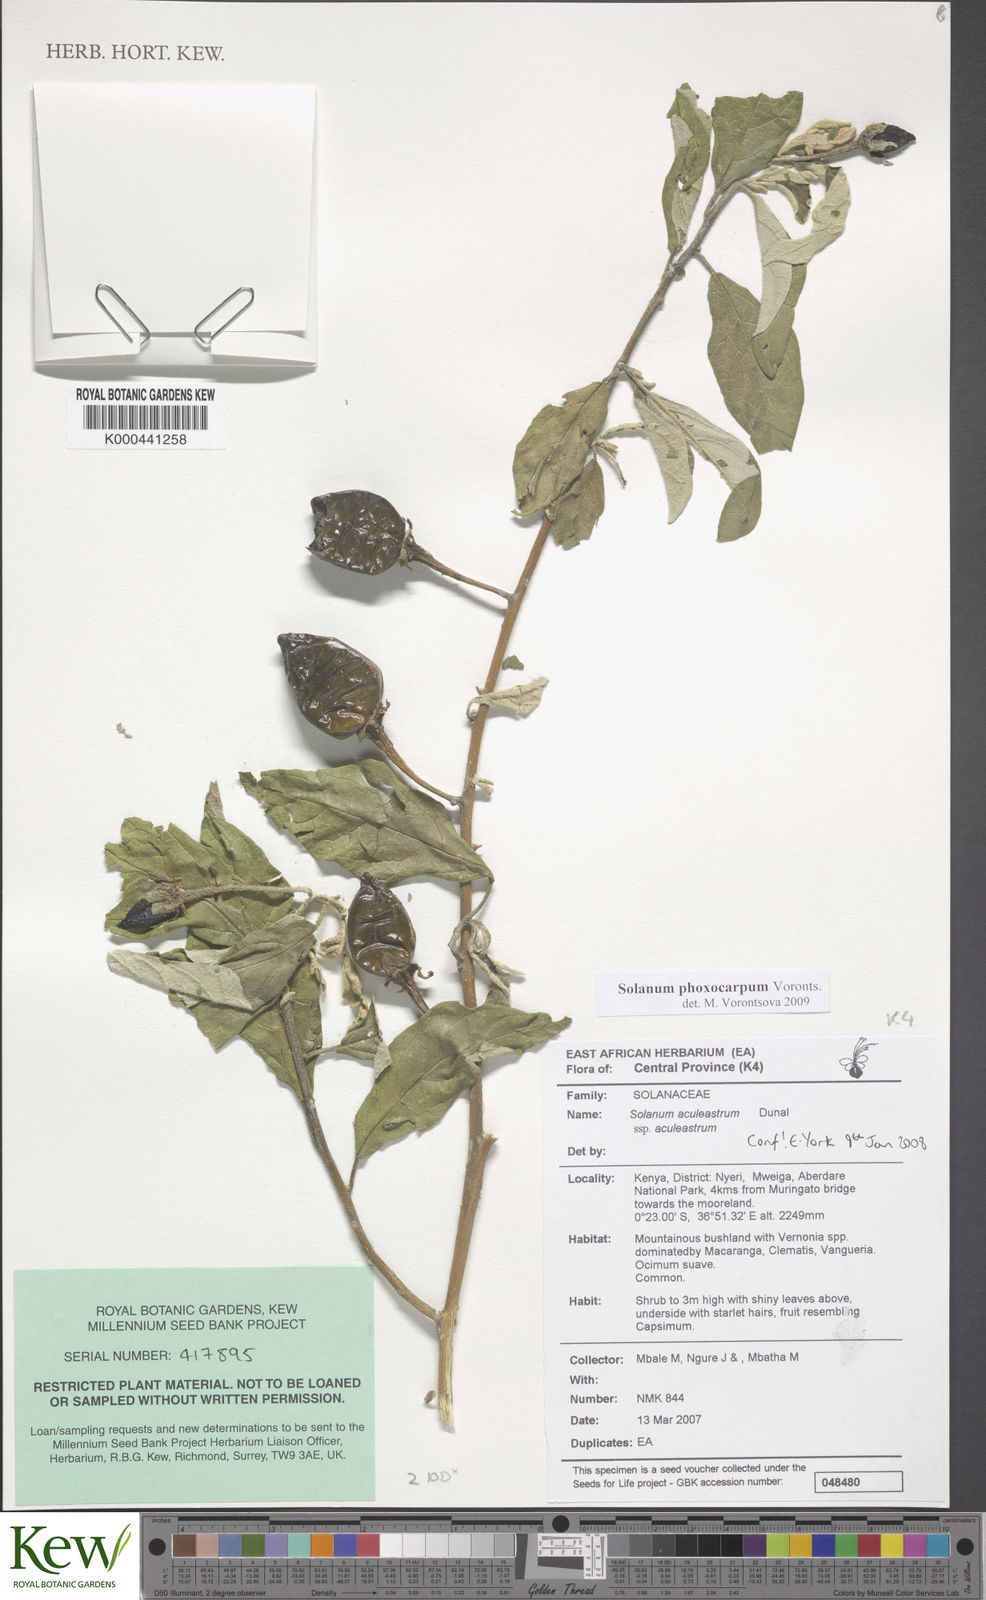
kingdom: Plantae
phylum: Tracheophyta
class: Magnoliopsida
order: Solanales
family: Solanaceae
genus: Solanum
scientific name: Solanum phoxocarpum
